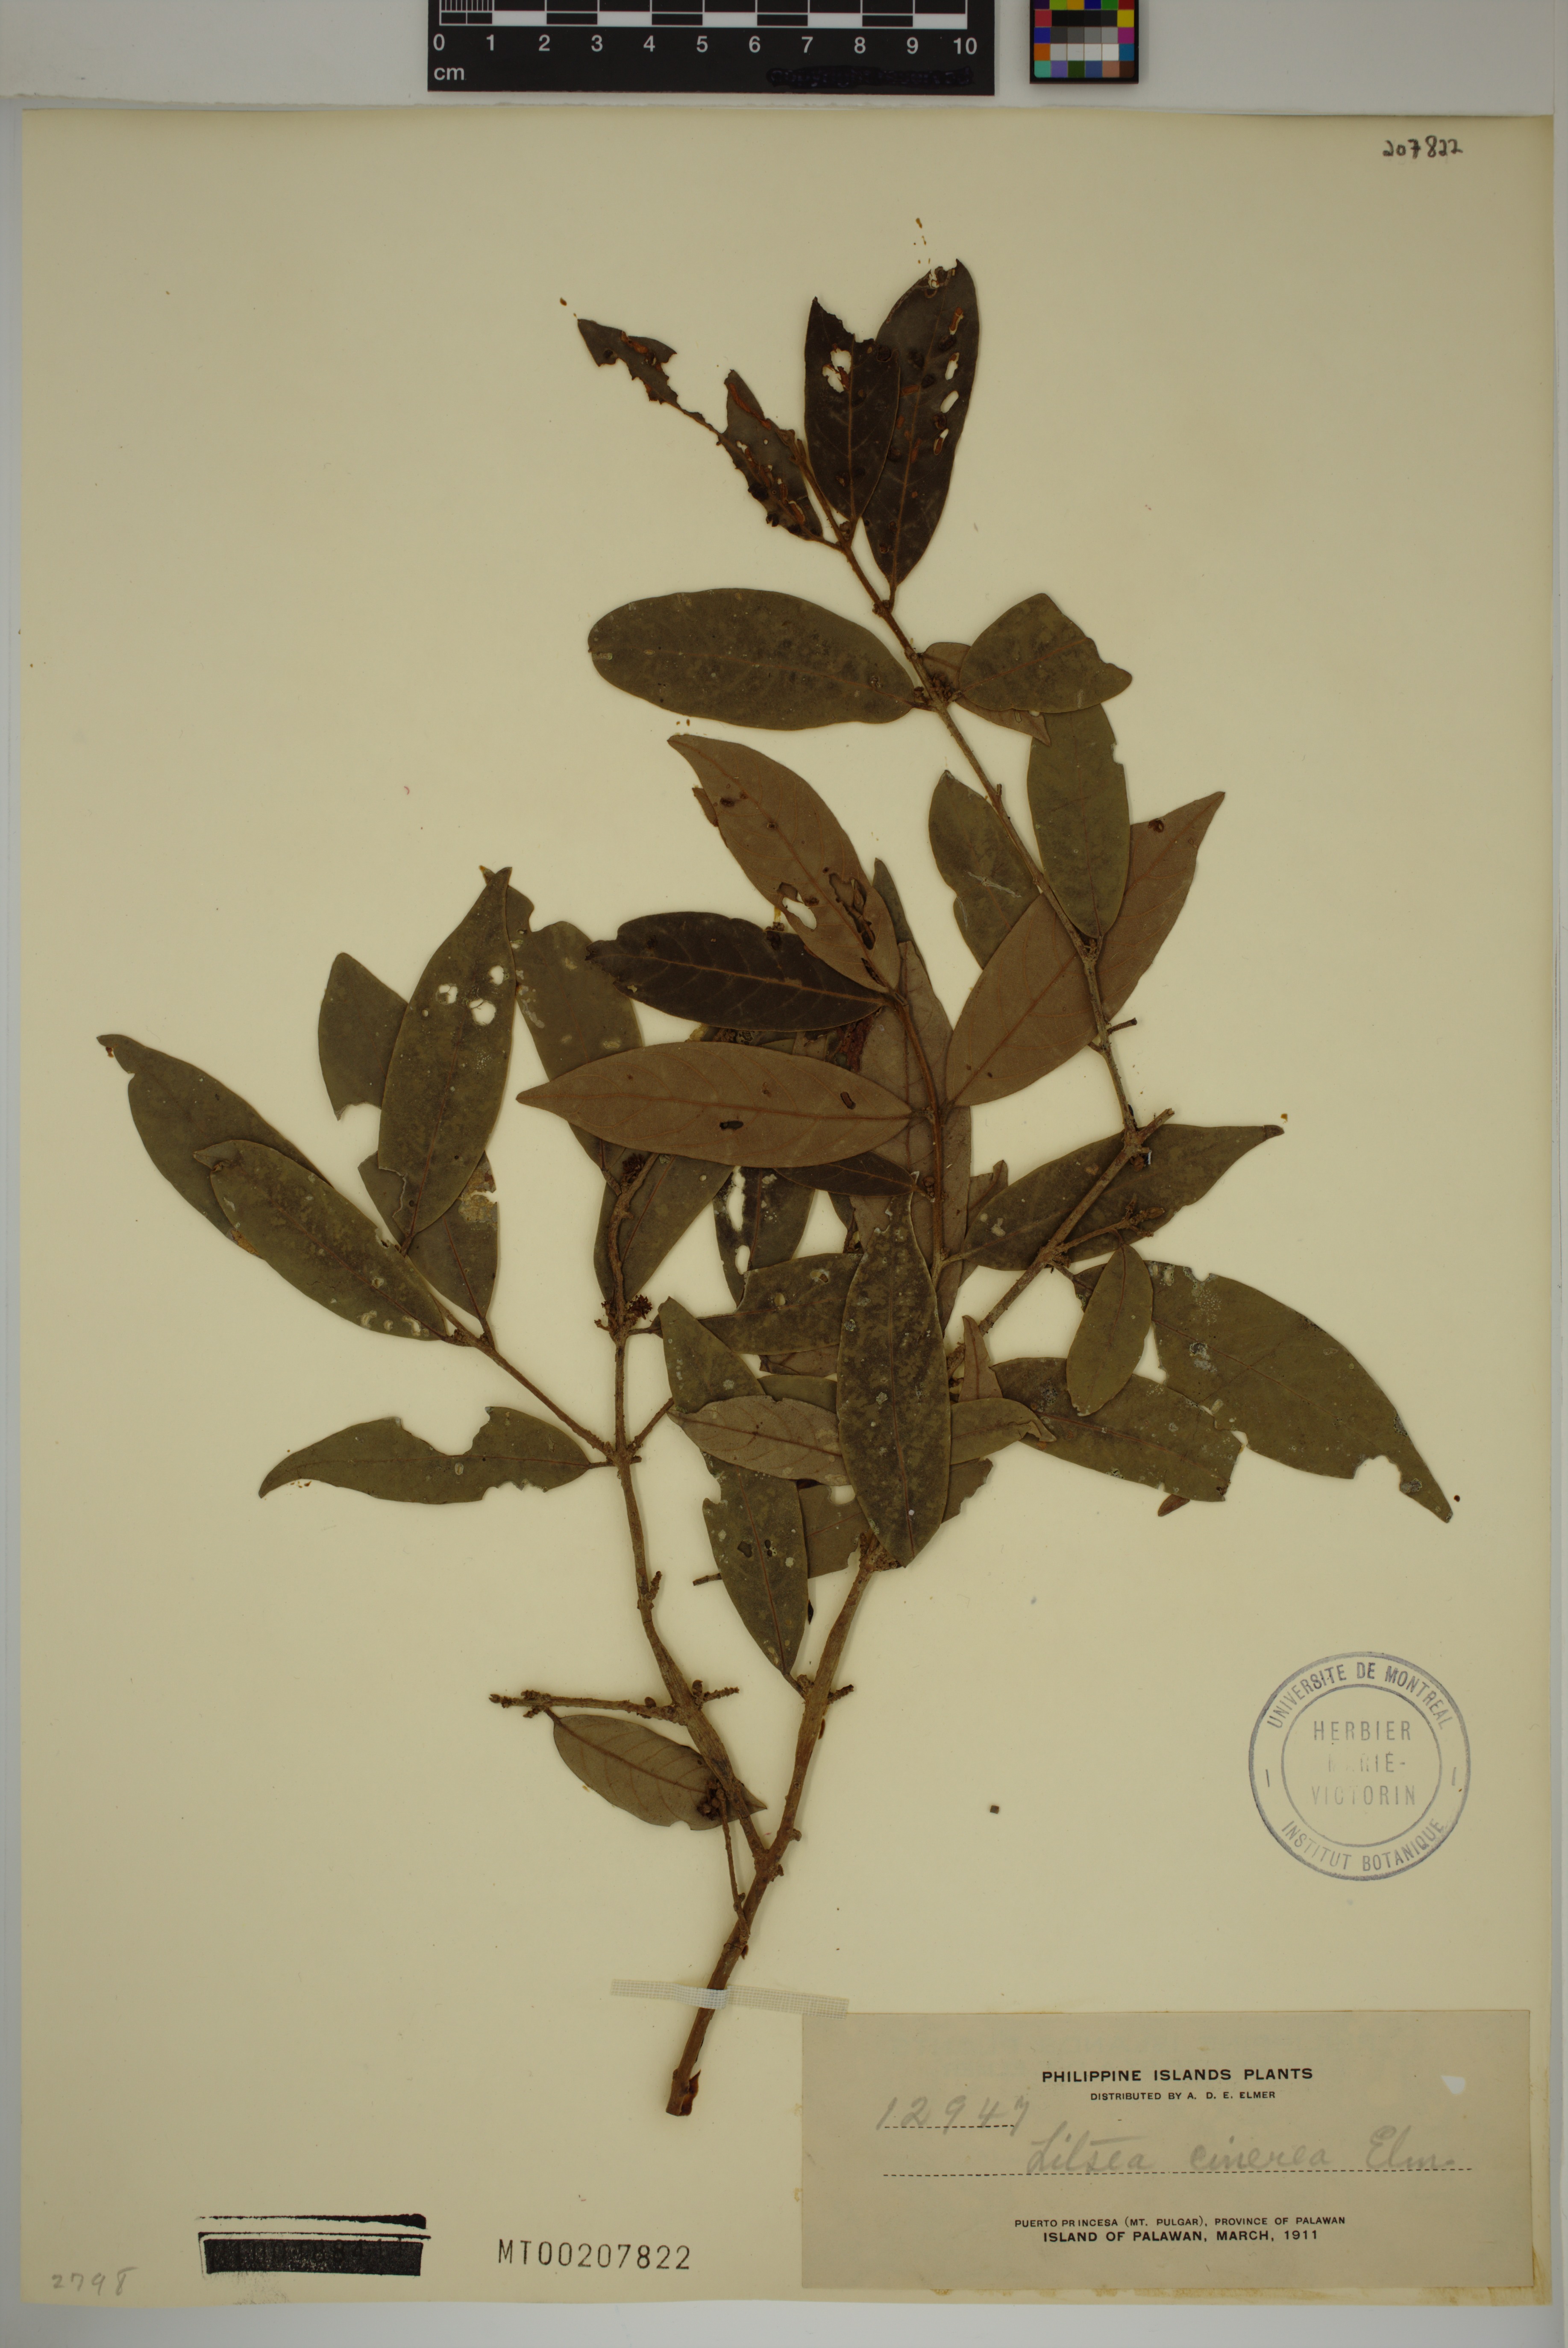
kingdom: Plantae
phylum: Tracheophyta
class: Magnoliopsida
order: Laurales
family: Lauraceae
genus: Litsea
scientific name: Litsea varians
